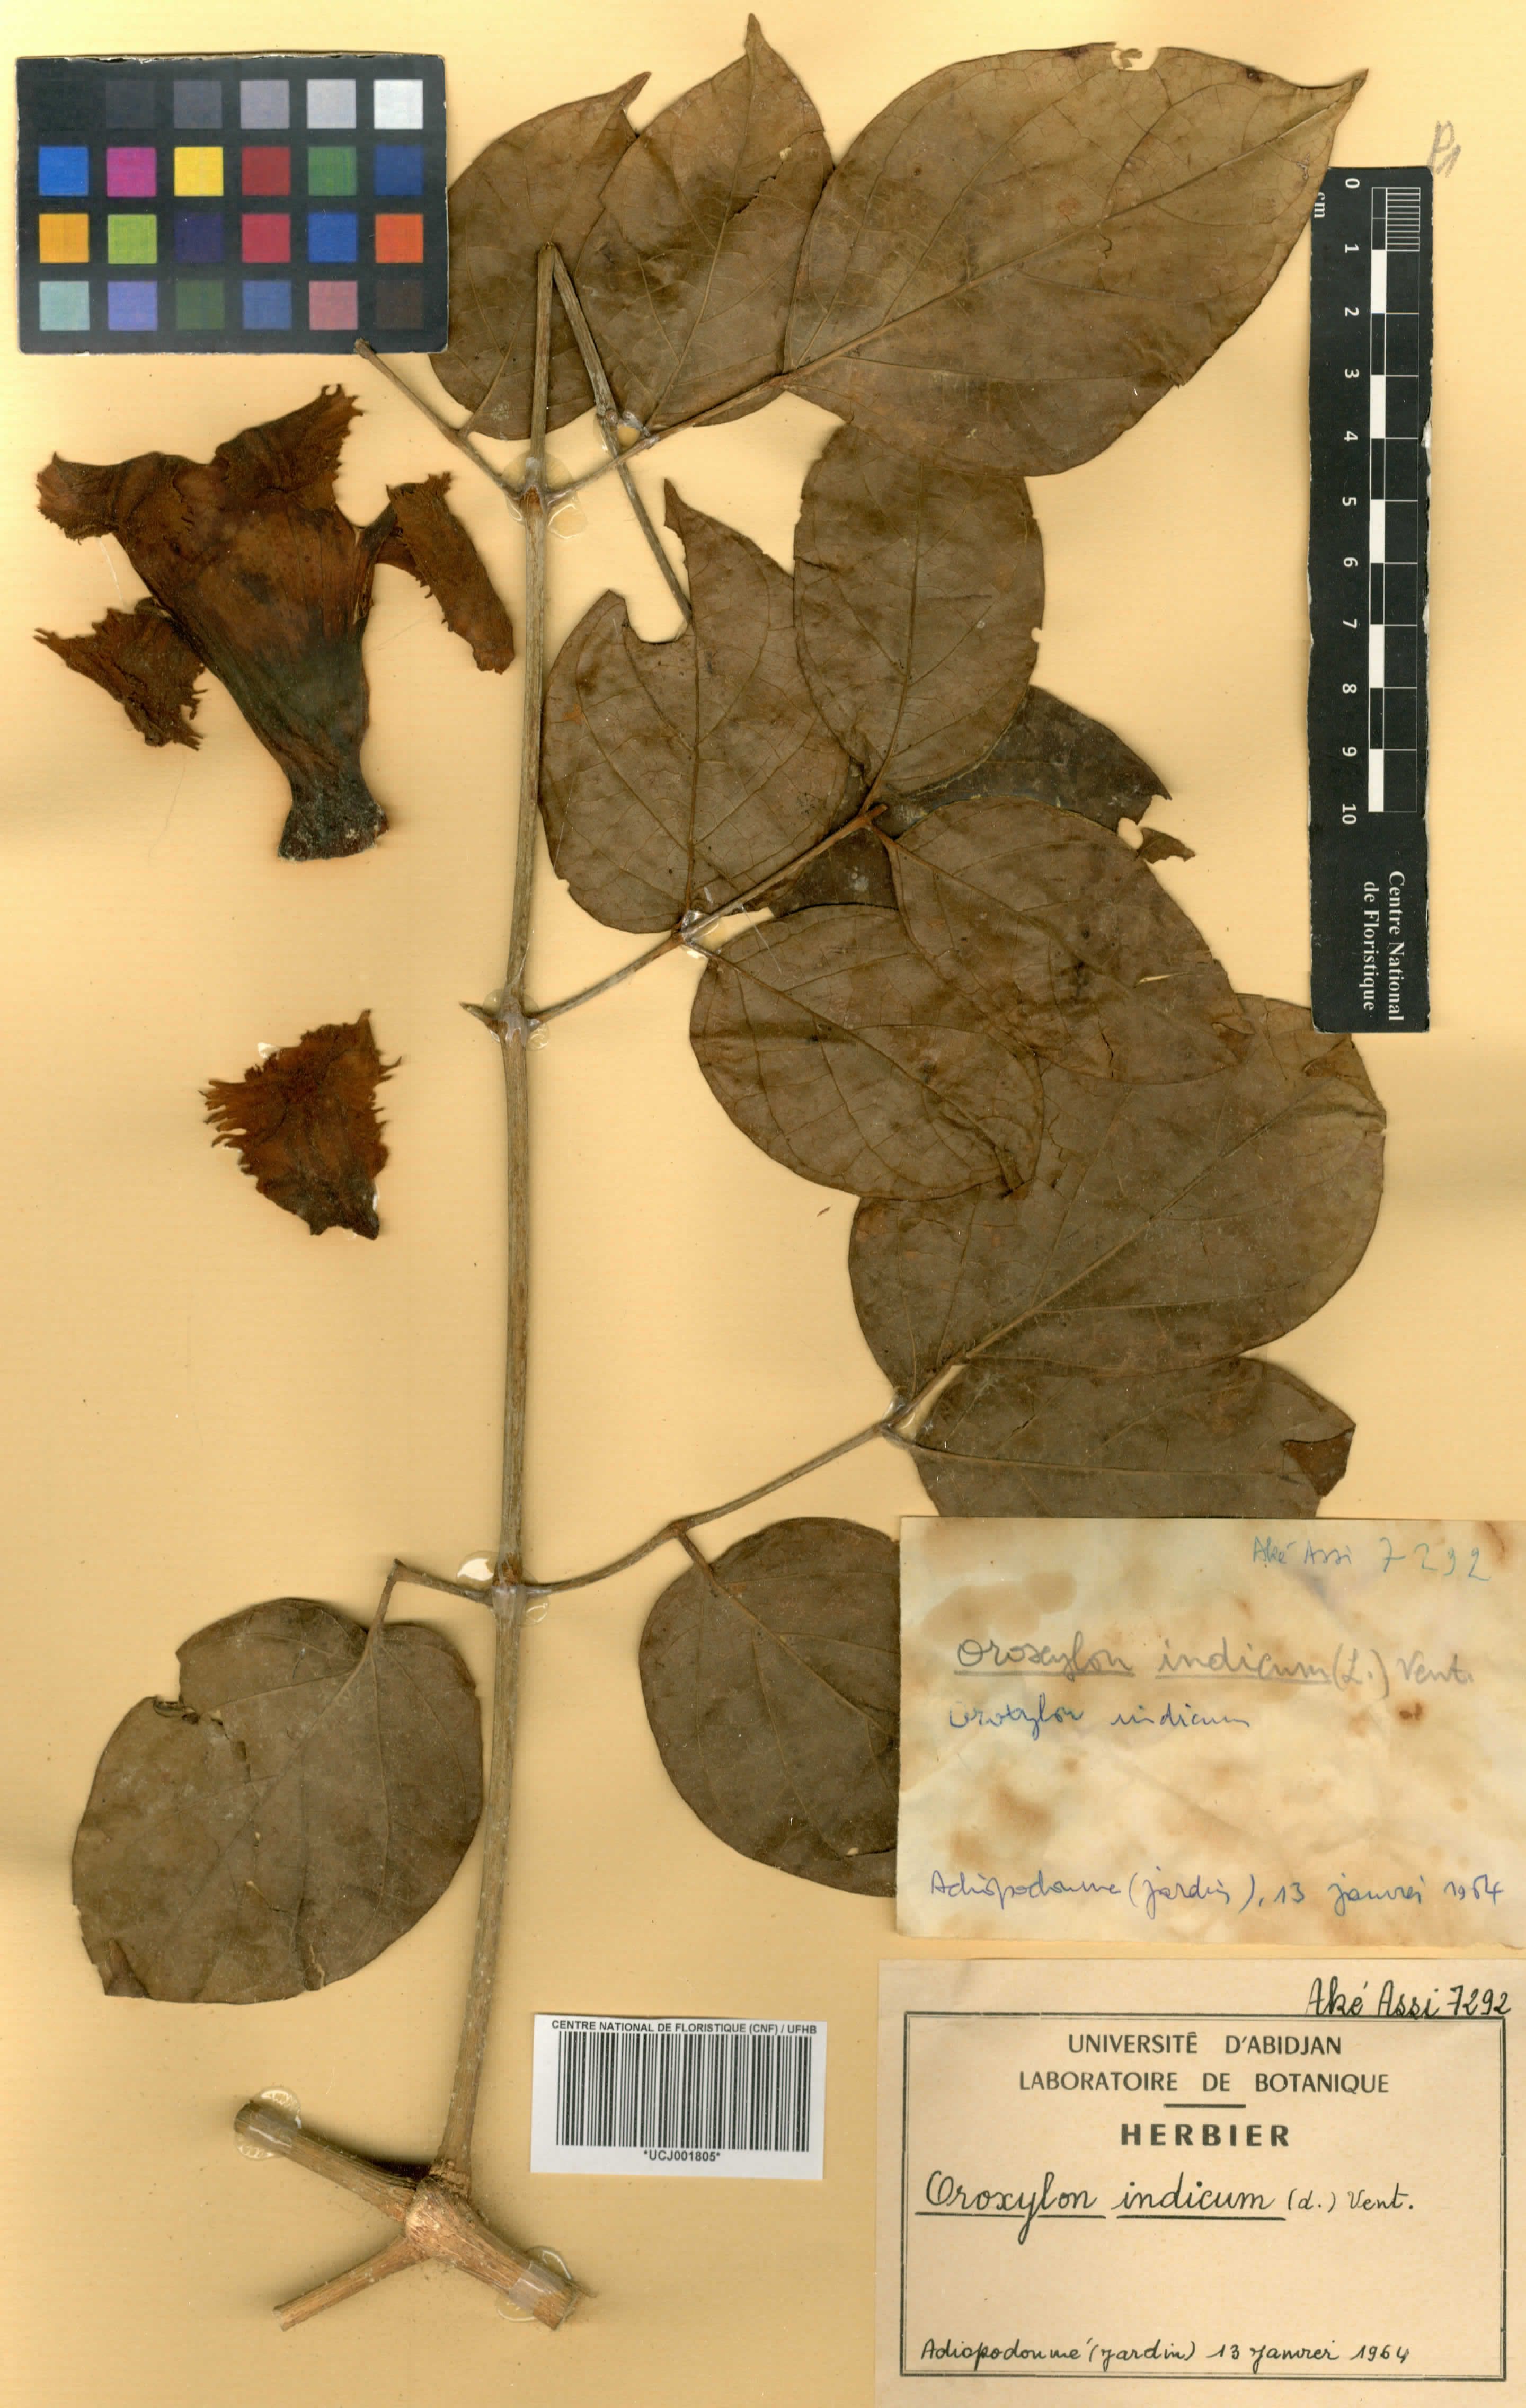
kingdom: Plantae
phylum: Tracheophyta
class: Magnoliopsida
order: Lamiales
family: Bignoniaceae
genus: Oroxylum
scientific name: Oroxylum indicum
